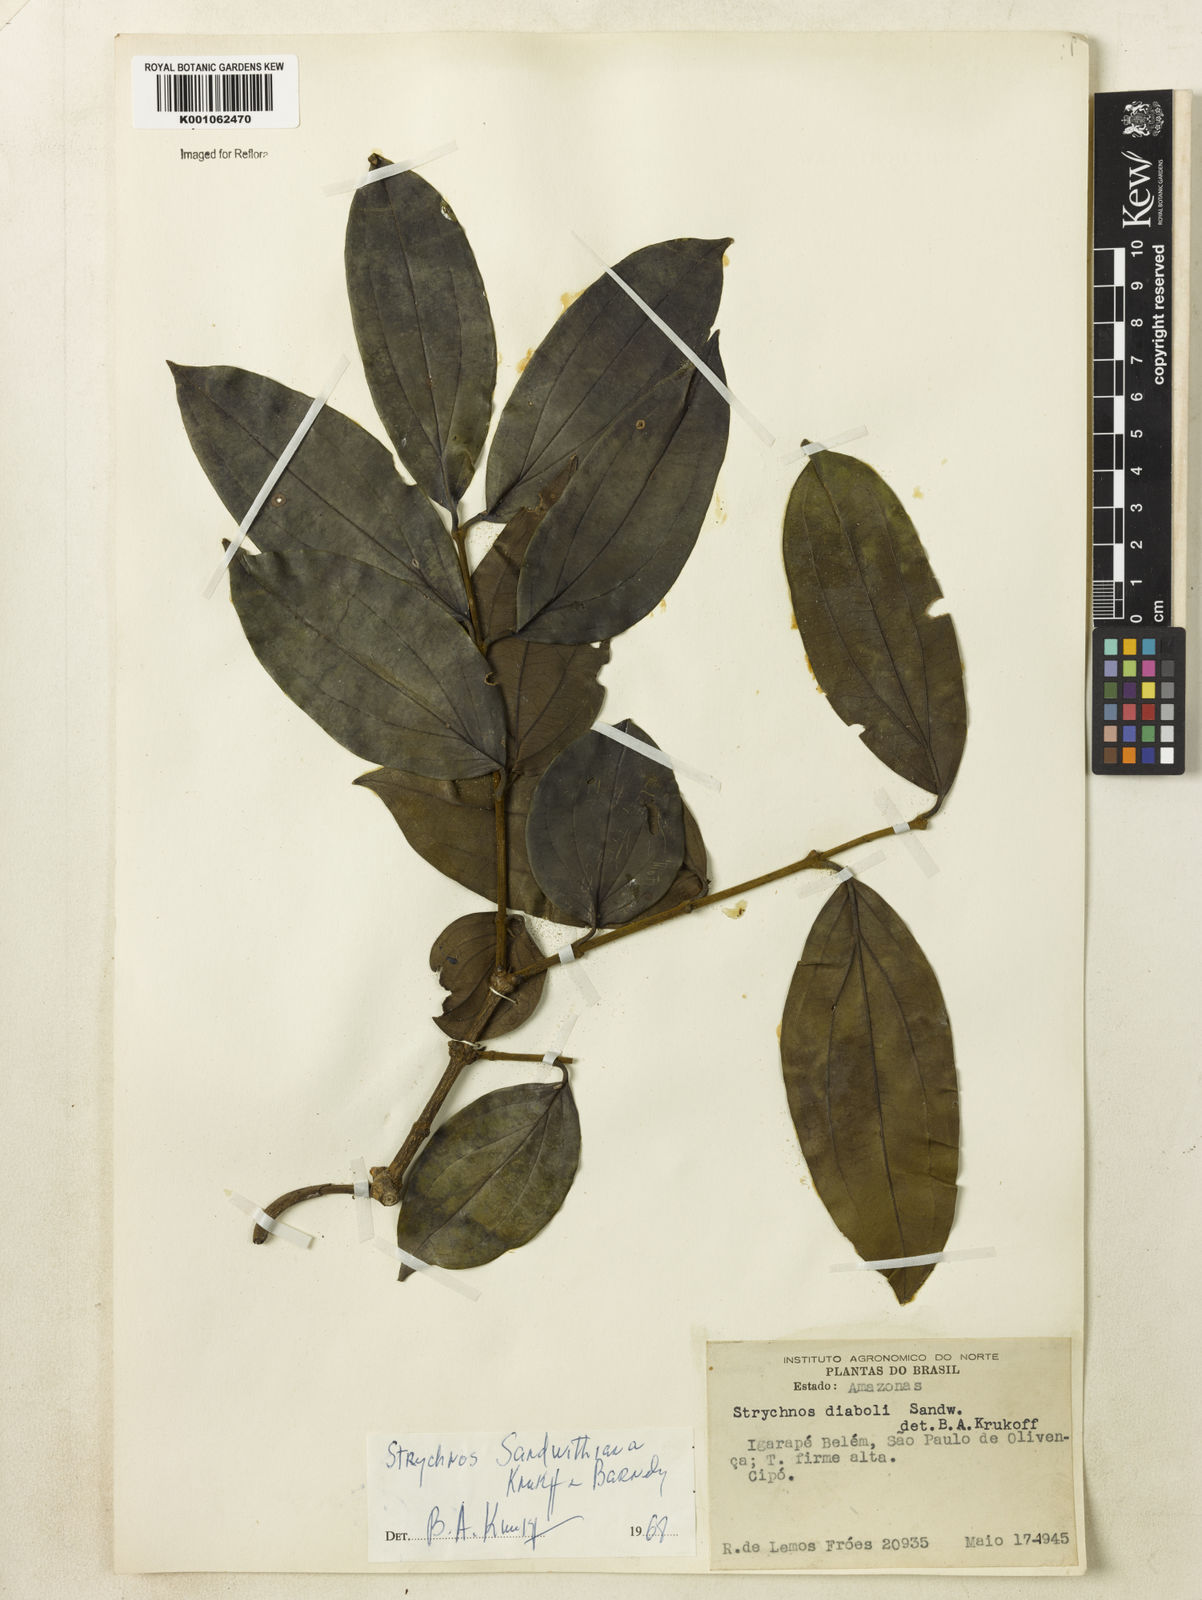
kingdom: Plantae
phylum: Tracheophyta
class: Magnoliopsida
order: Gentianales
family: Loganiaceae
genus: Strychnos
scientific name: Strychnos sandwithiana
